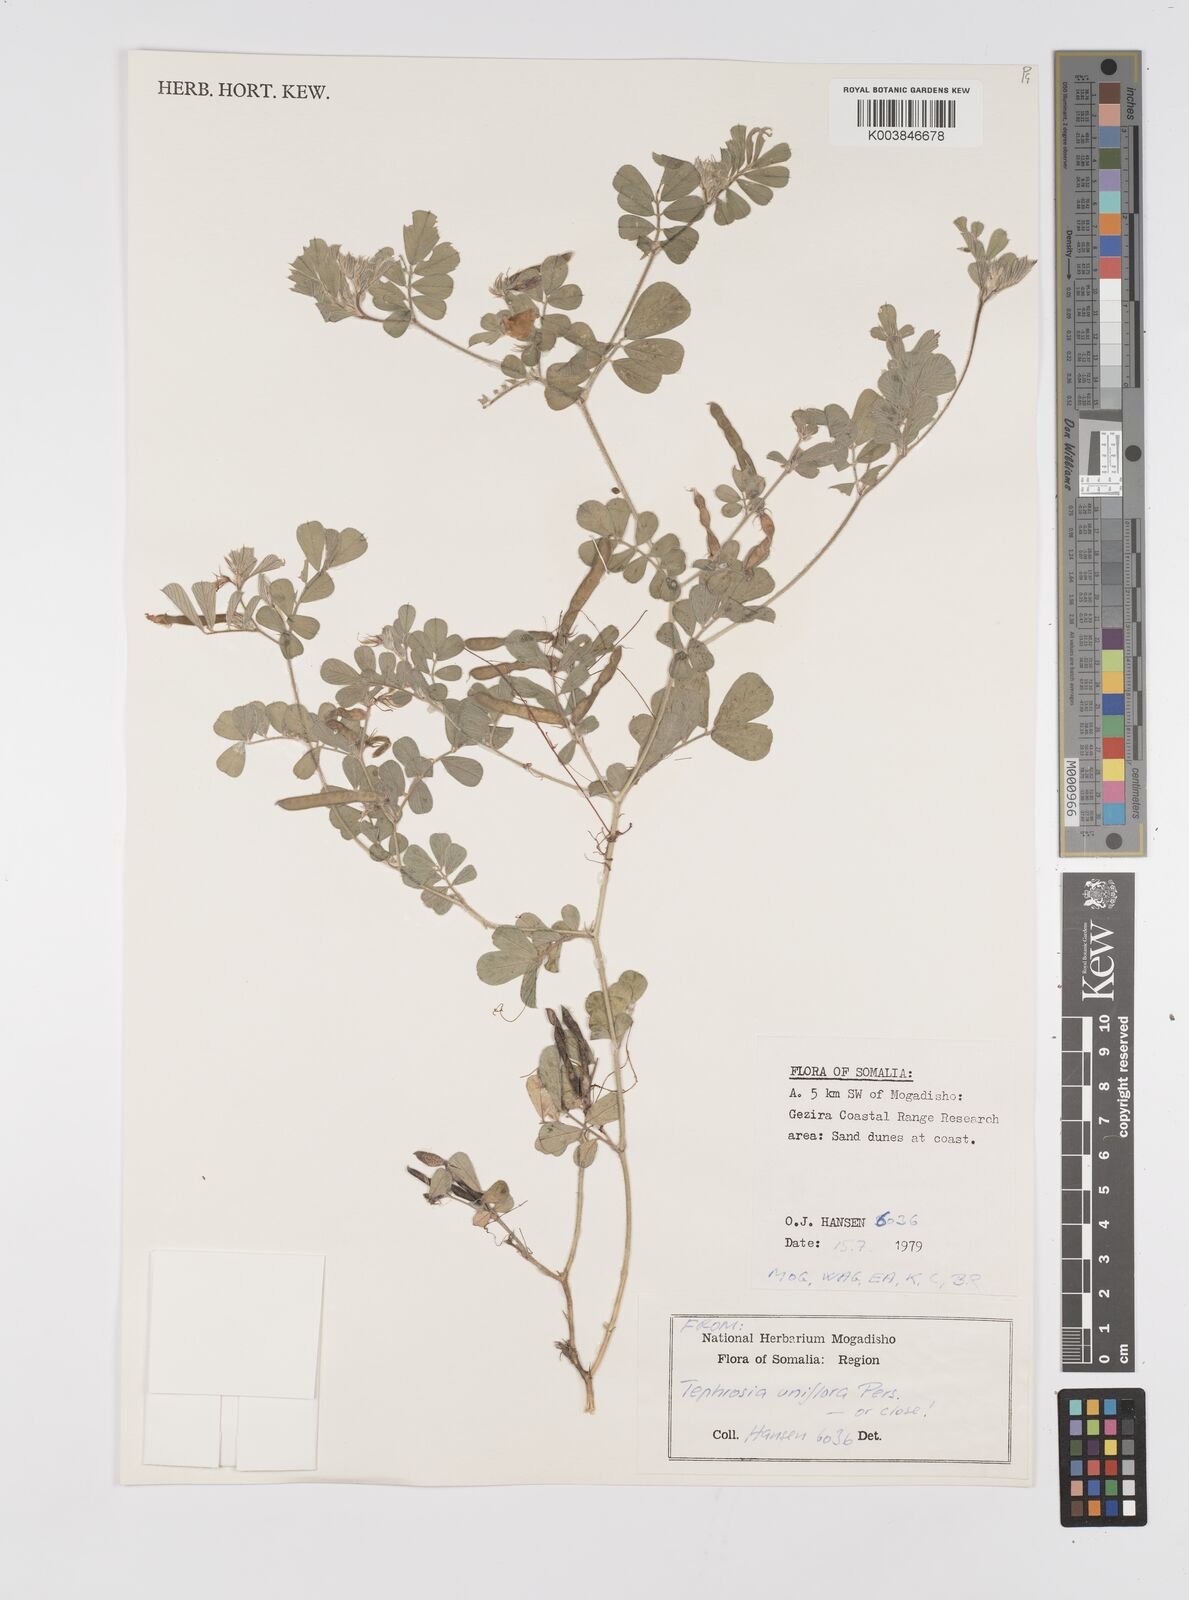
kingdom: Plantae
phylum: Tracheophyta
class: Magnoliopsida
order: Fabales
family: Fabaceae
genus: Tephrosia
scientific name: Tephrosia uniflora
